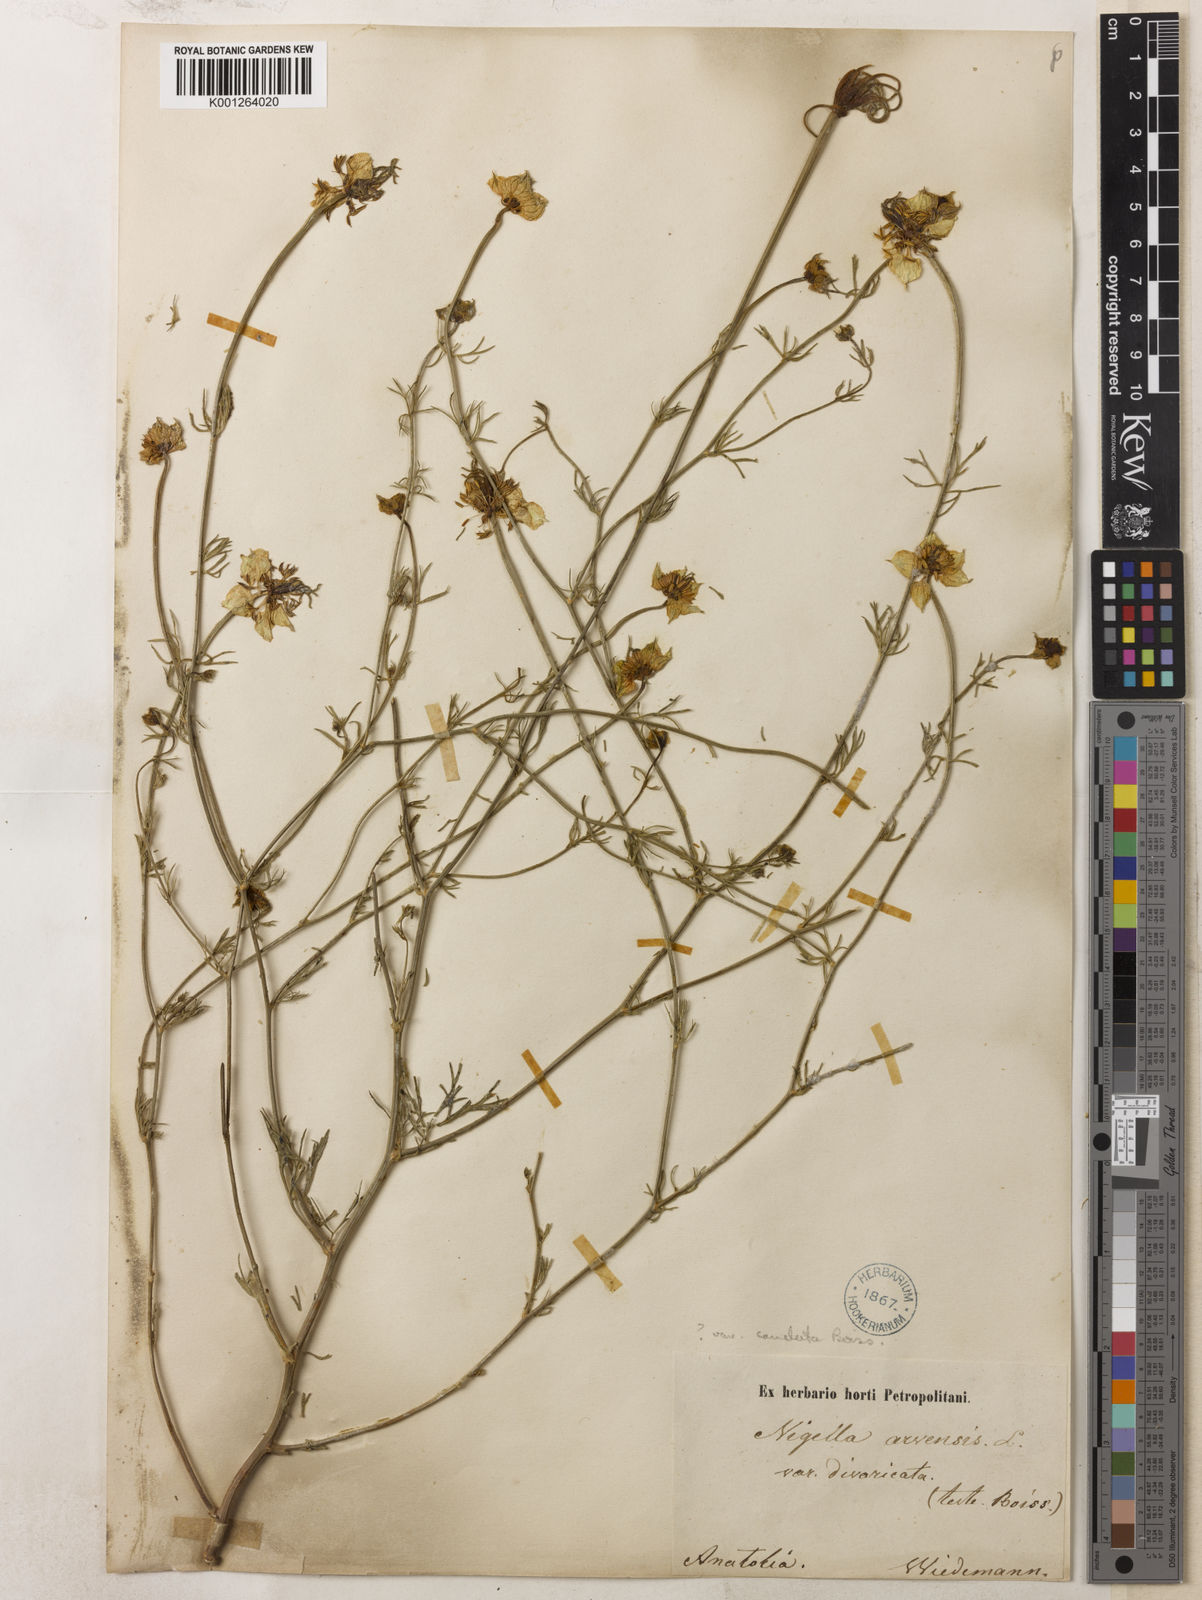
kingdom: Plantae
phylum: Tracheophyta
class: Magnoliopsida
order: Ranunculales
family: Ranunculaceae
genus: Nigella
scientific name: Nigella arvensis
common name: Wild fennel-flower
